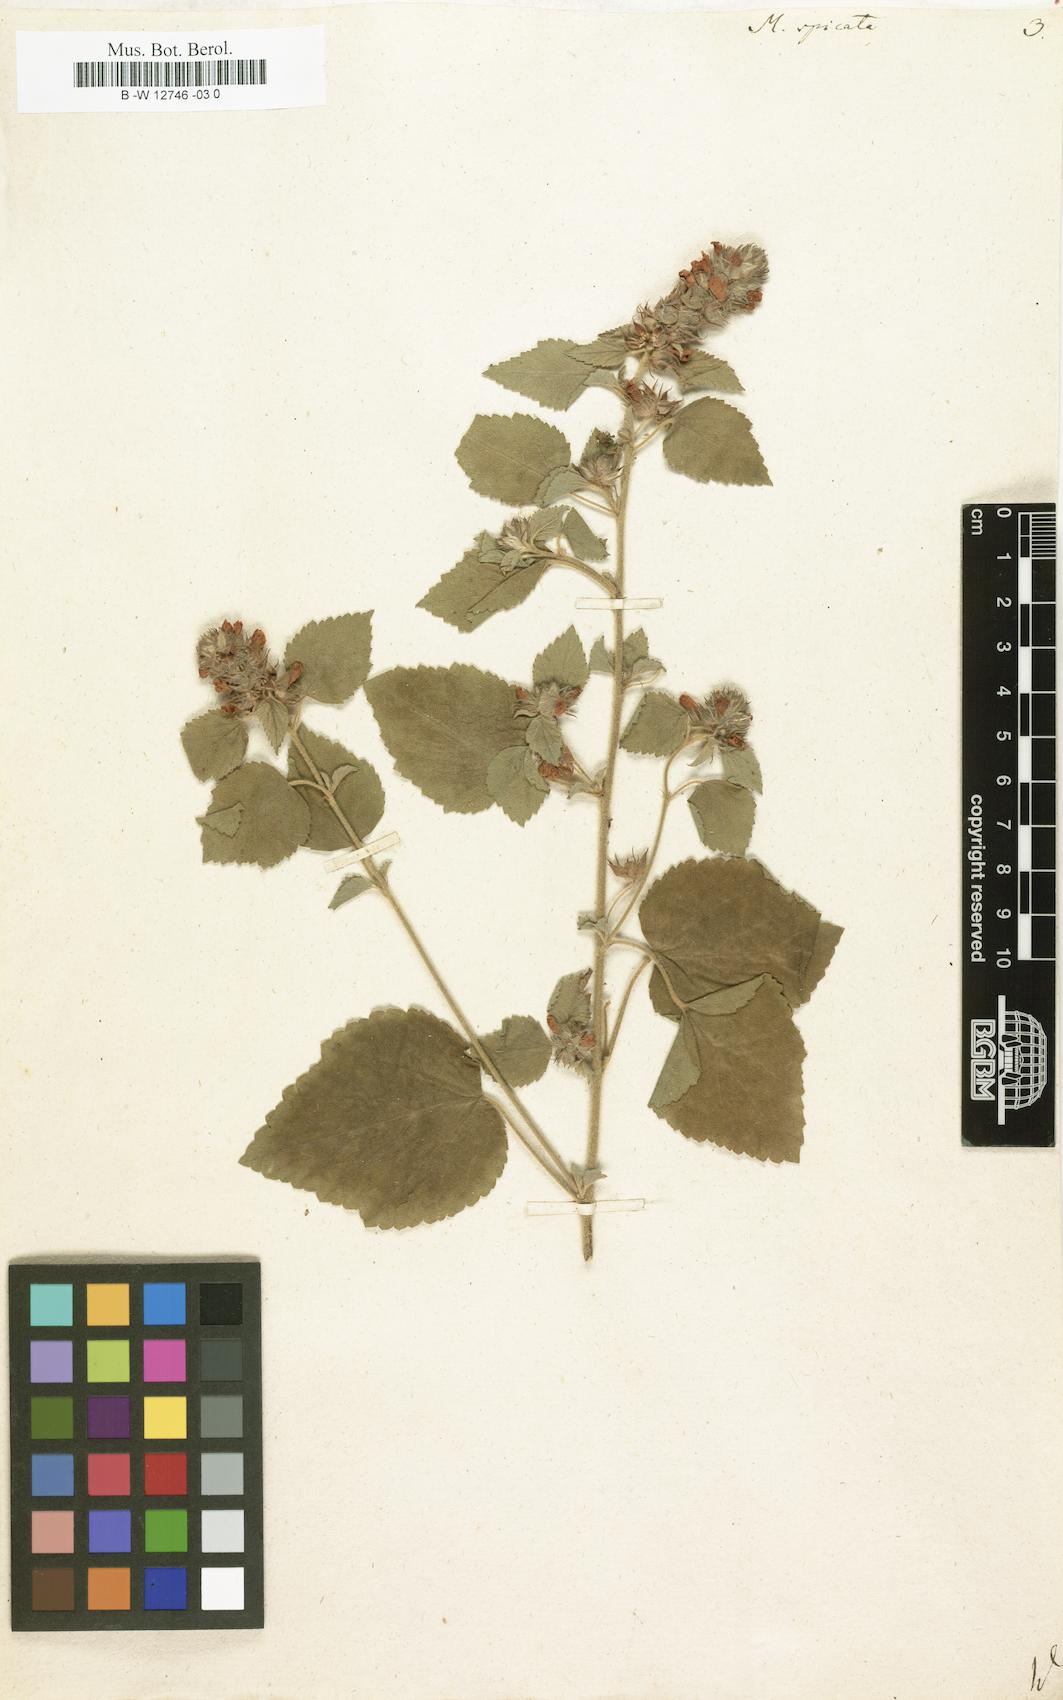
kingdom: Plantae
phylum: Tracheophyta
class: Magnoliopsida
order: Malvales
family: Malvaceae
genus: Melochia
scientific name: Melochia spicata
